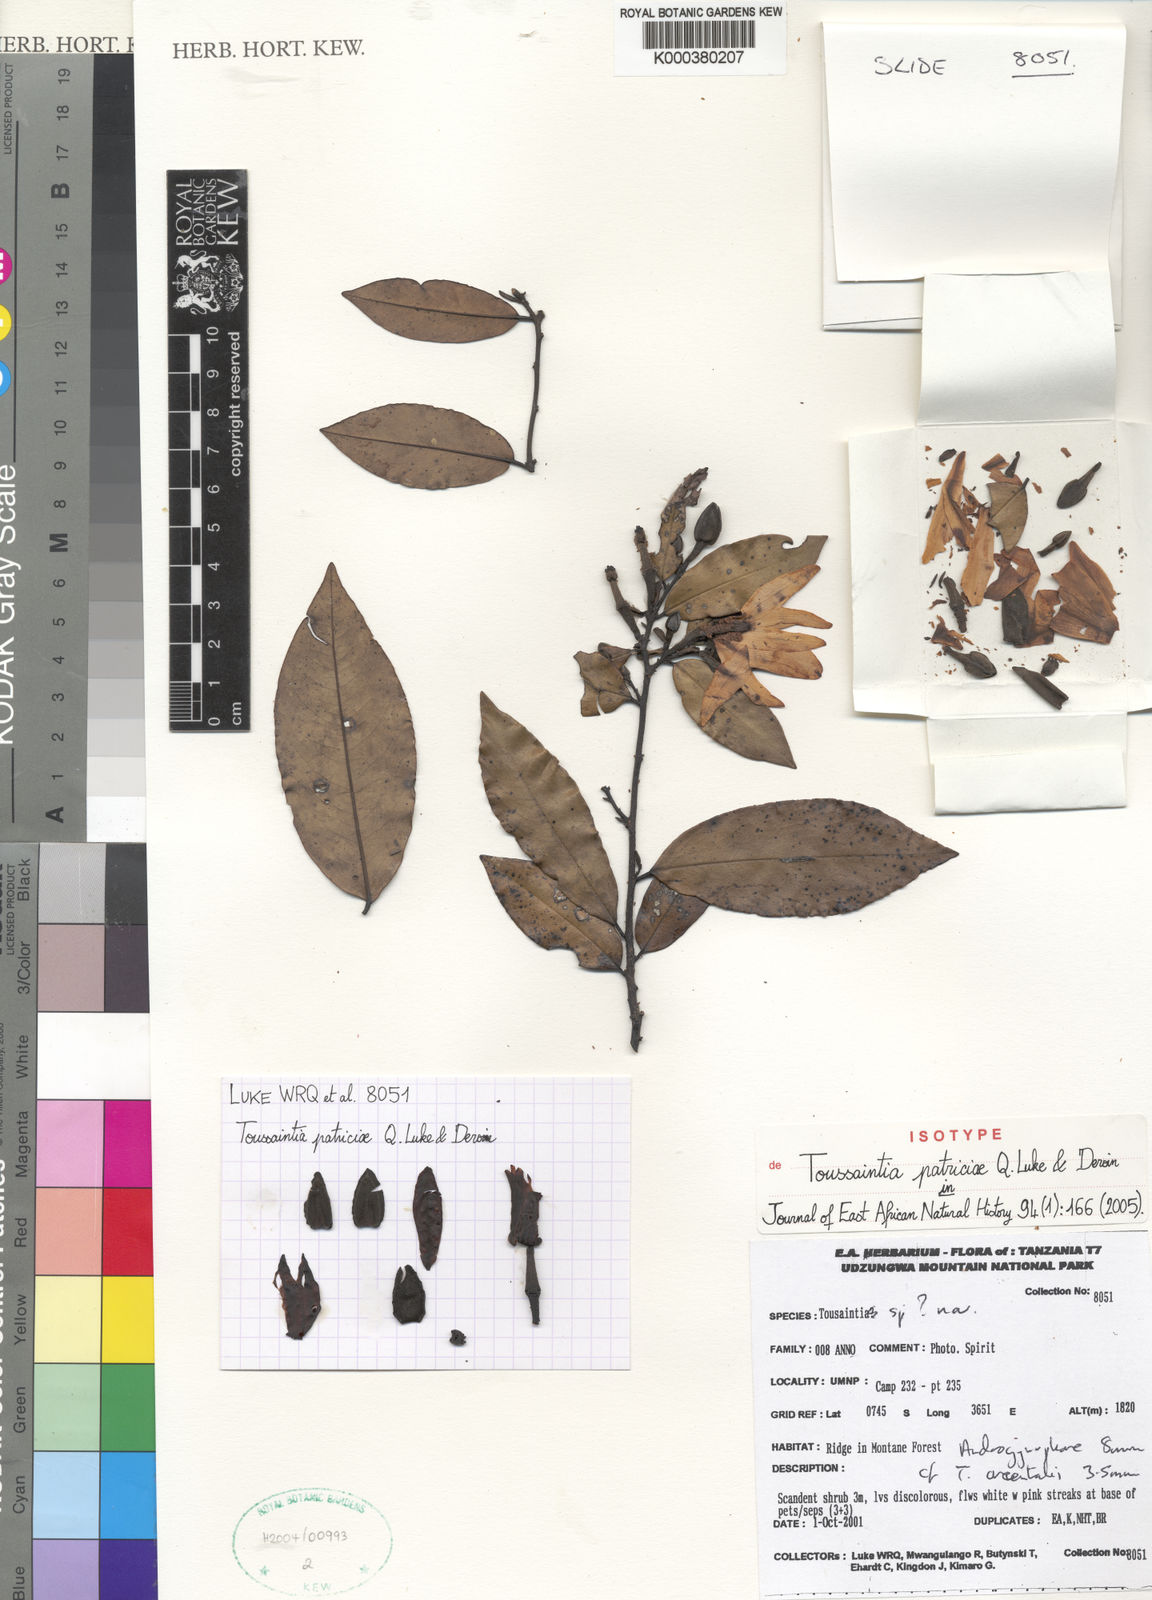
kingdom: Plantae
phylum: Tracheophyta
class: Magnoliopsida
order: Magnoliales
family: Annonaceae
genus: Toussaintia
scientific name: Toussaintia patriciae
